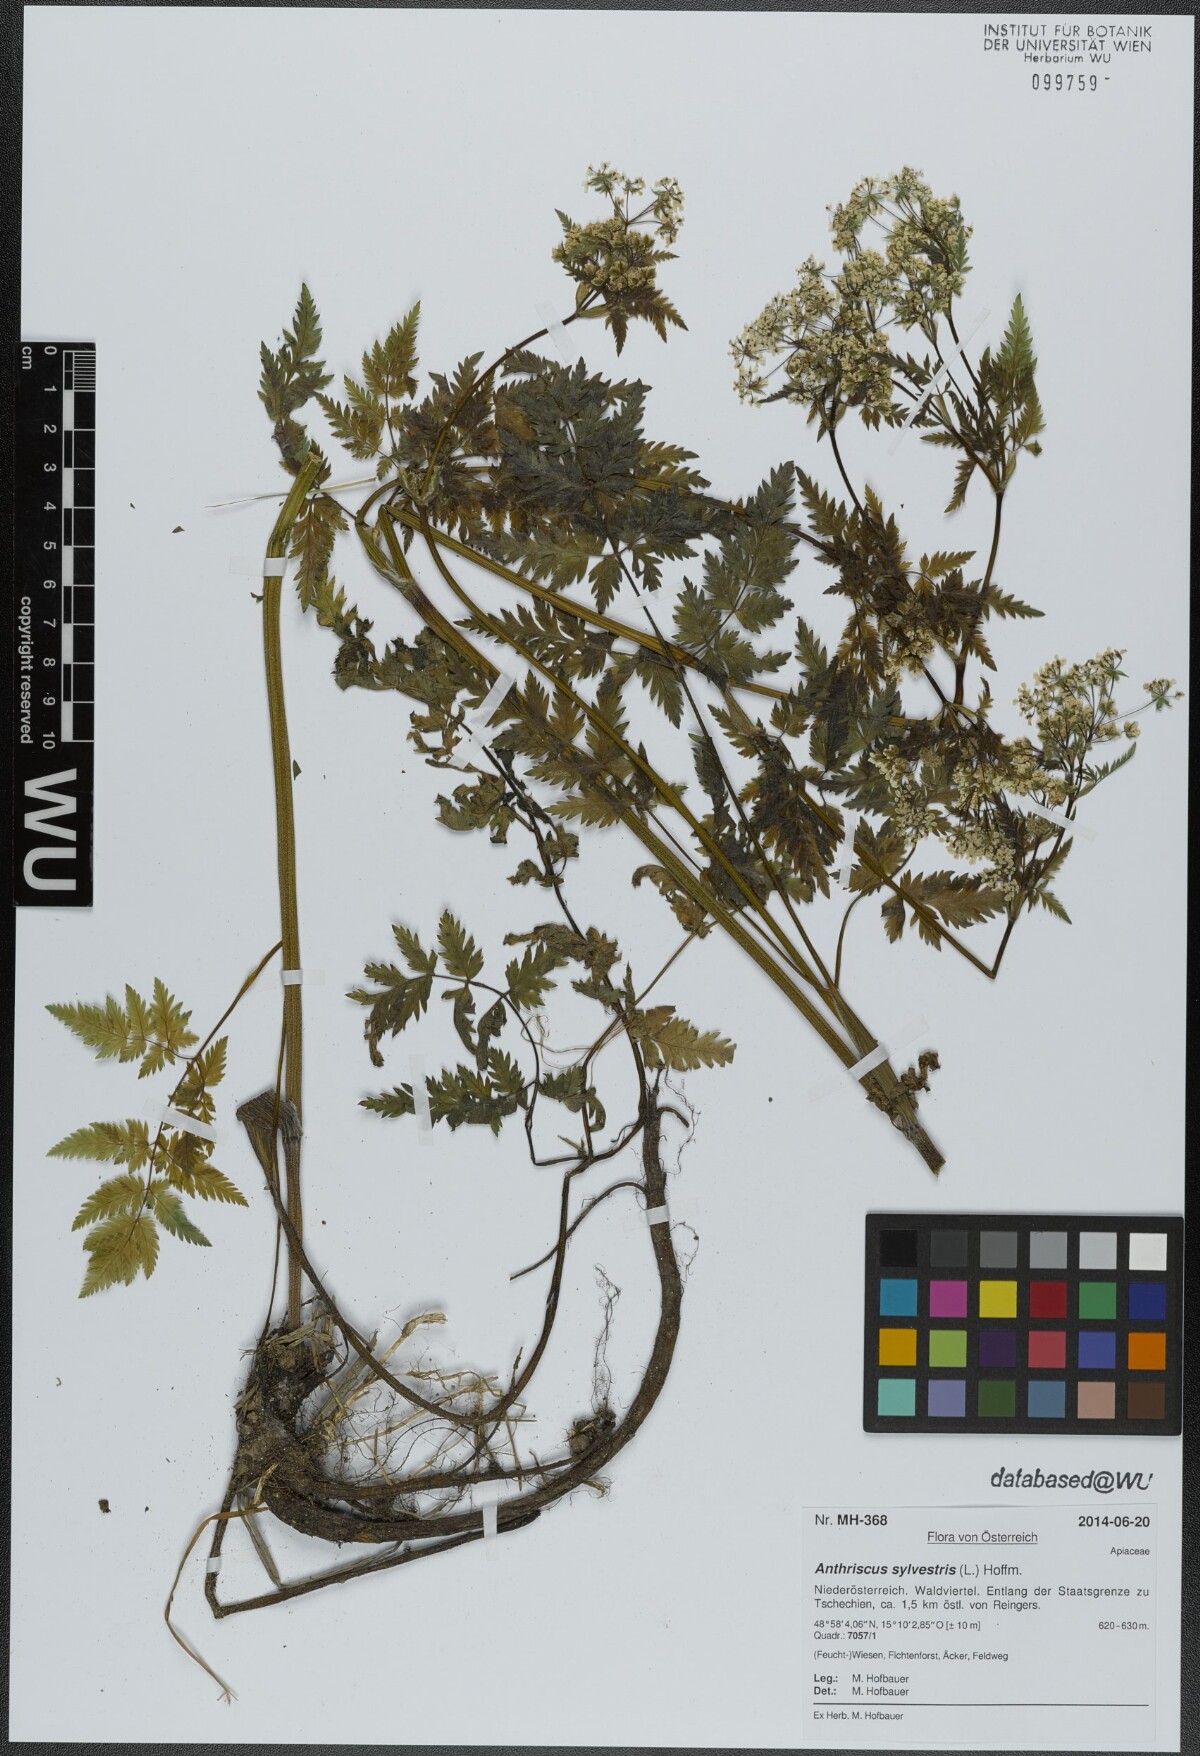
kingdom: Plantae
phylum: Tracheophyta
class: Magnoliopsida
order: Apiales
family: Apiaceae
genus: Anthriscus
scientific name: Anthriscus sylvestris
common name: Cow parsley
